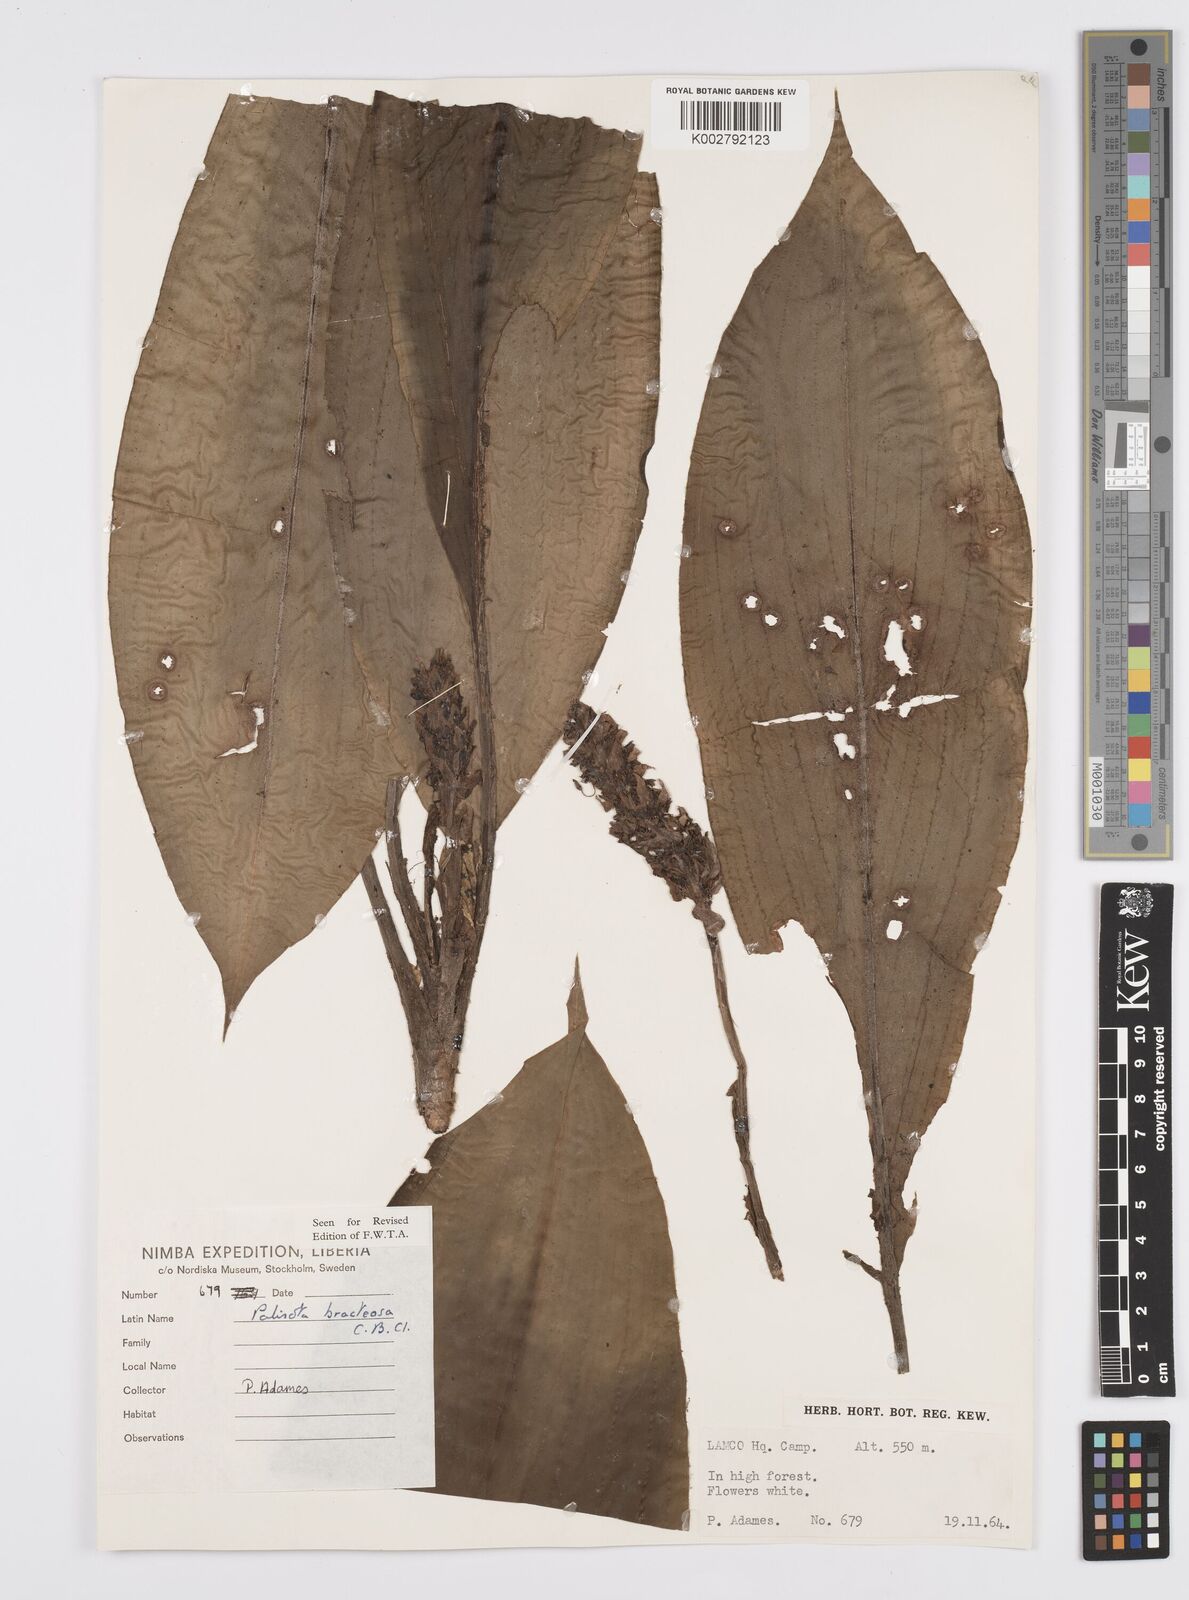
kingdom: Plantae
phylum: Tracheophyta
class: Liliopsida
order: Commelinales
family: Commelinaceae
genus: Palisota
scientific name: Palisota bracteosa
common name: Palisota
